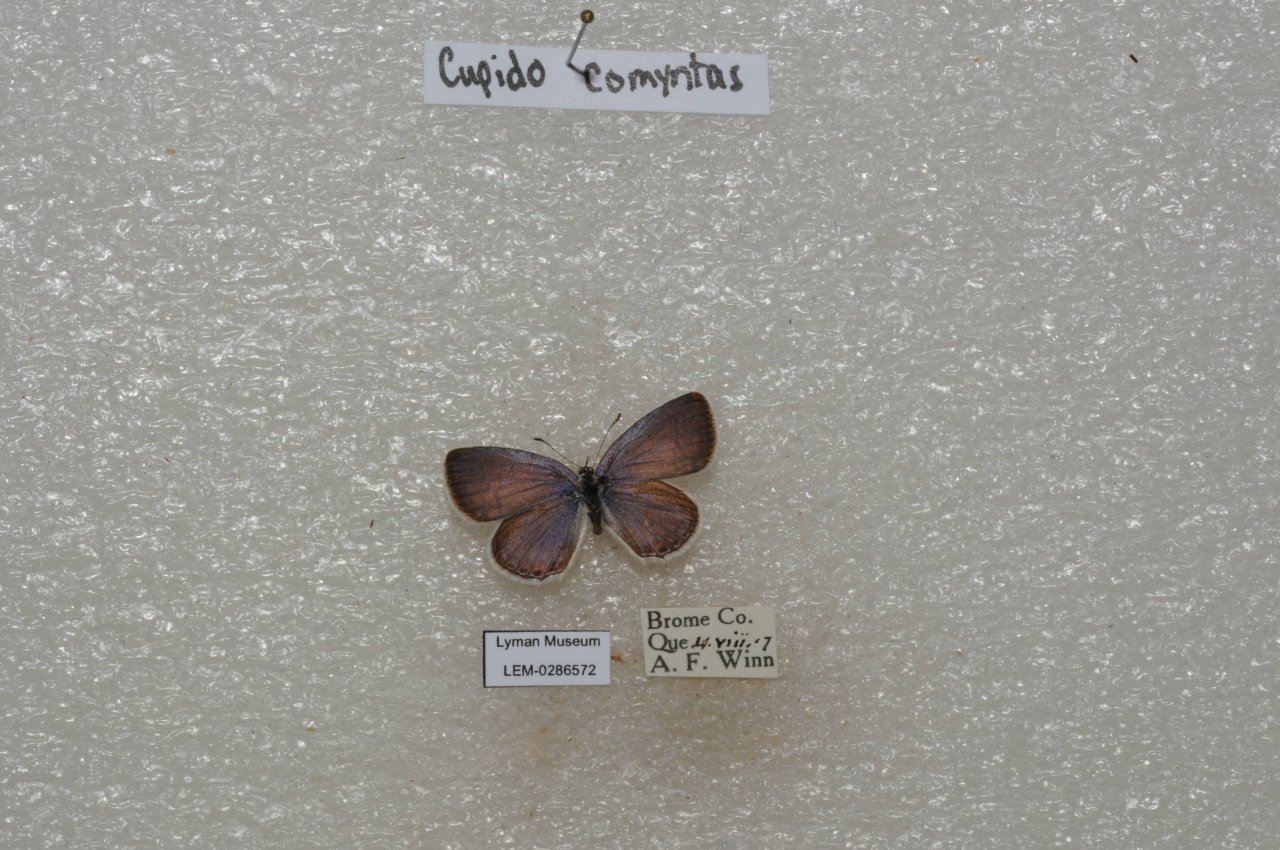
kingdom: Animalia
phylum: Arthropoda
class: Insecta
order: Lepidoptera
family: Lycaenidae
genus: Elkalyce
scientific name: Elkalyce comyntas
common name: Eastern Tailed-Blue
